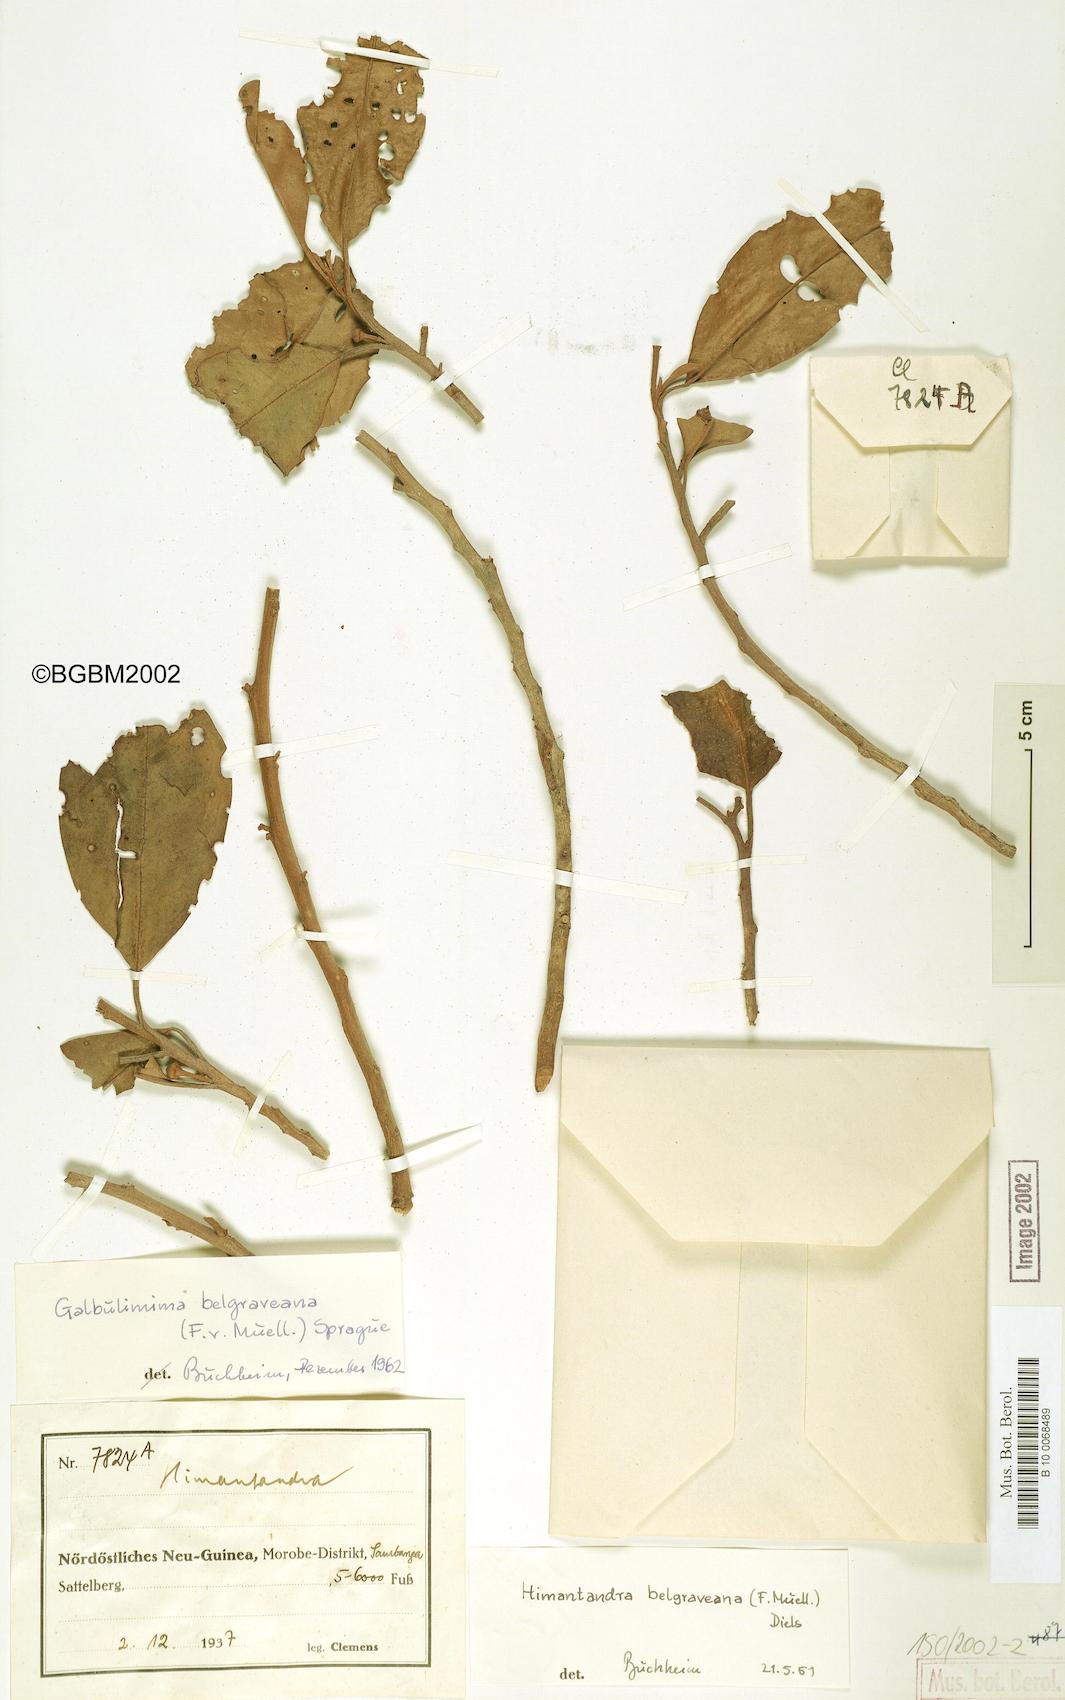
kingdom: Plantae
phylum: Tracheophyta
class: Magnoliopsida
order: Magnoliales
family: Himantandraceae
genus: Galbulimima
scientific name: Galbulimima belgraveana
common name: Northern pigeonberry-ash
